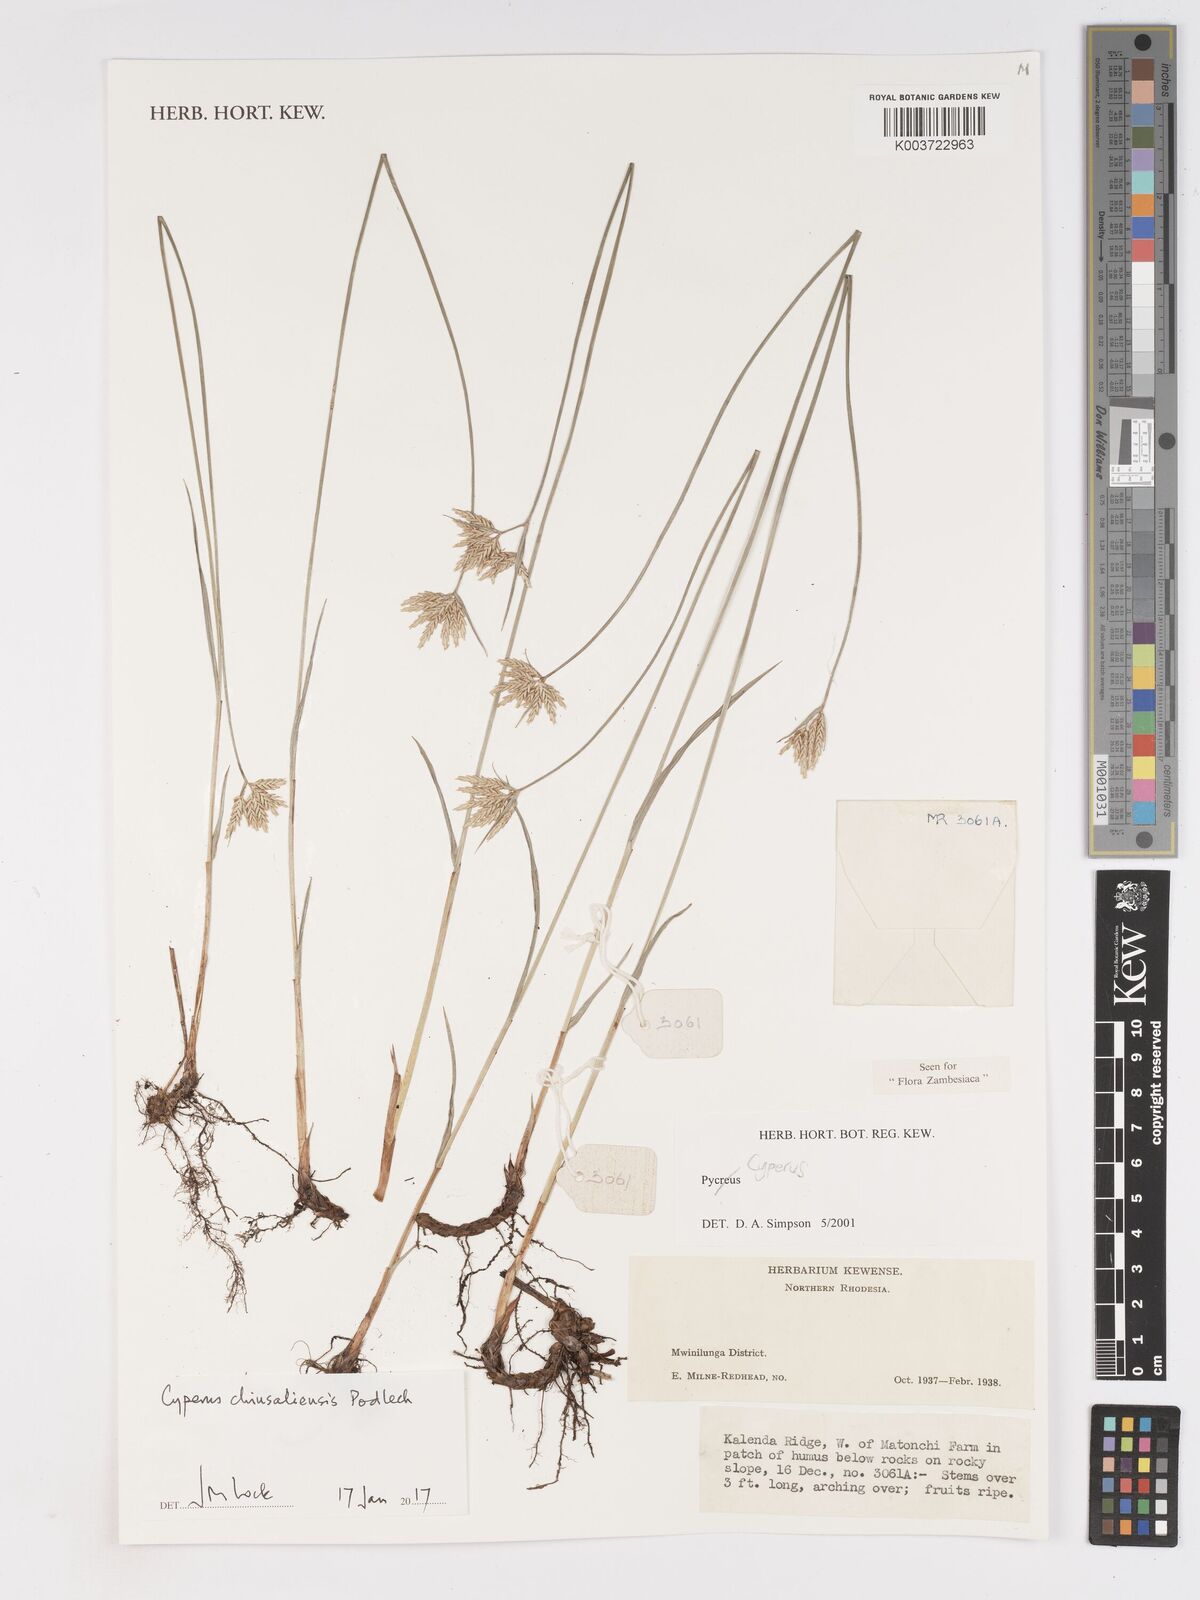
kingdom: Plantae
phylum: Tracheophyta
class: Liliopsida
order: Poales
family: Cyperaceae
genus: Cyperus
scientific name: Cyperus chinsalensis
